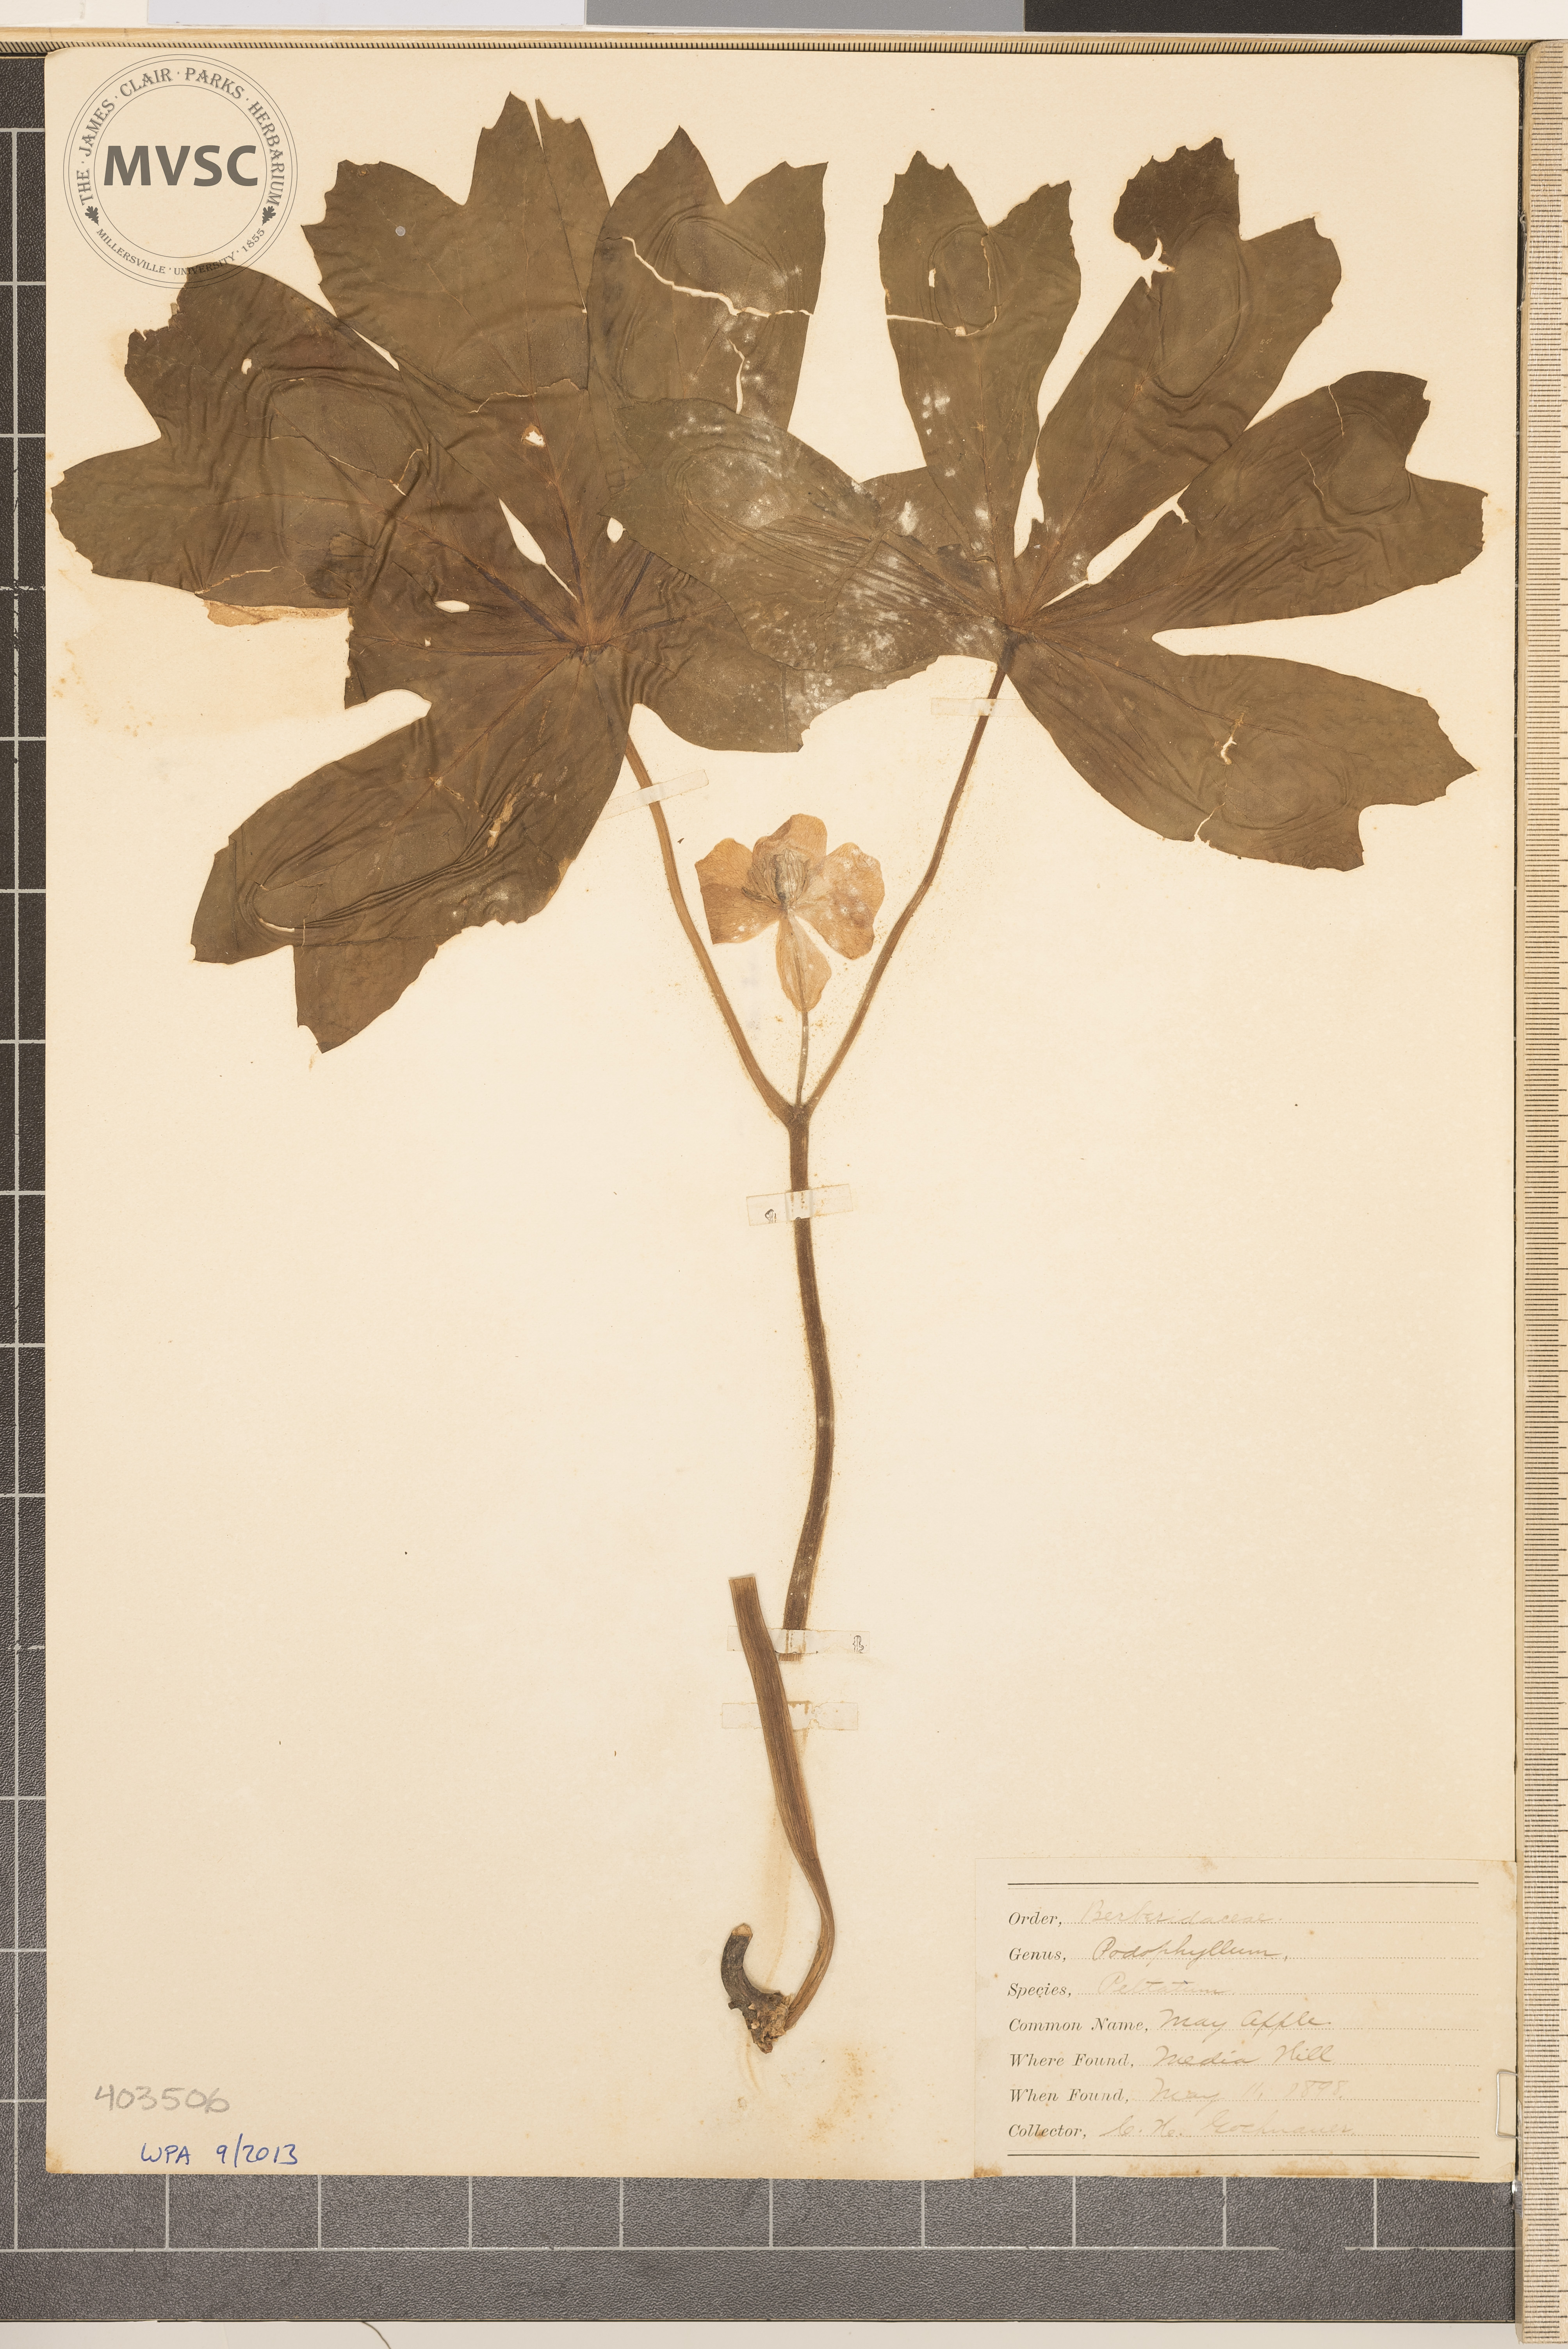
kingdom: Plantae
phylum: Tracheophyta
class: Magnoliopsida
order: Ranunculales
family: Berberidaceae
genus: Podophyllum
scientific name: Podophyllum peltatum
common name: May-Apple
